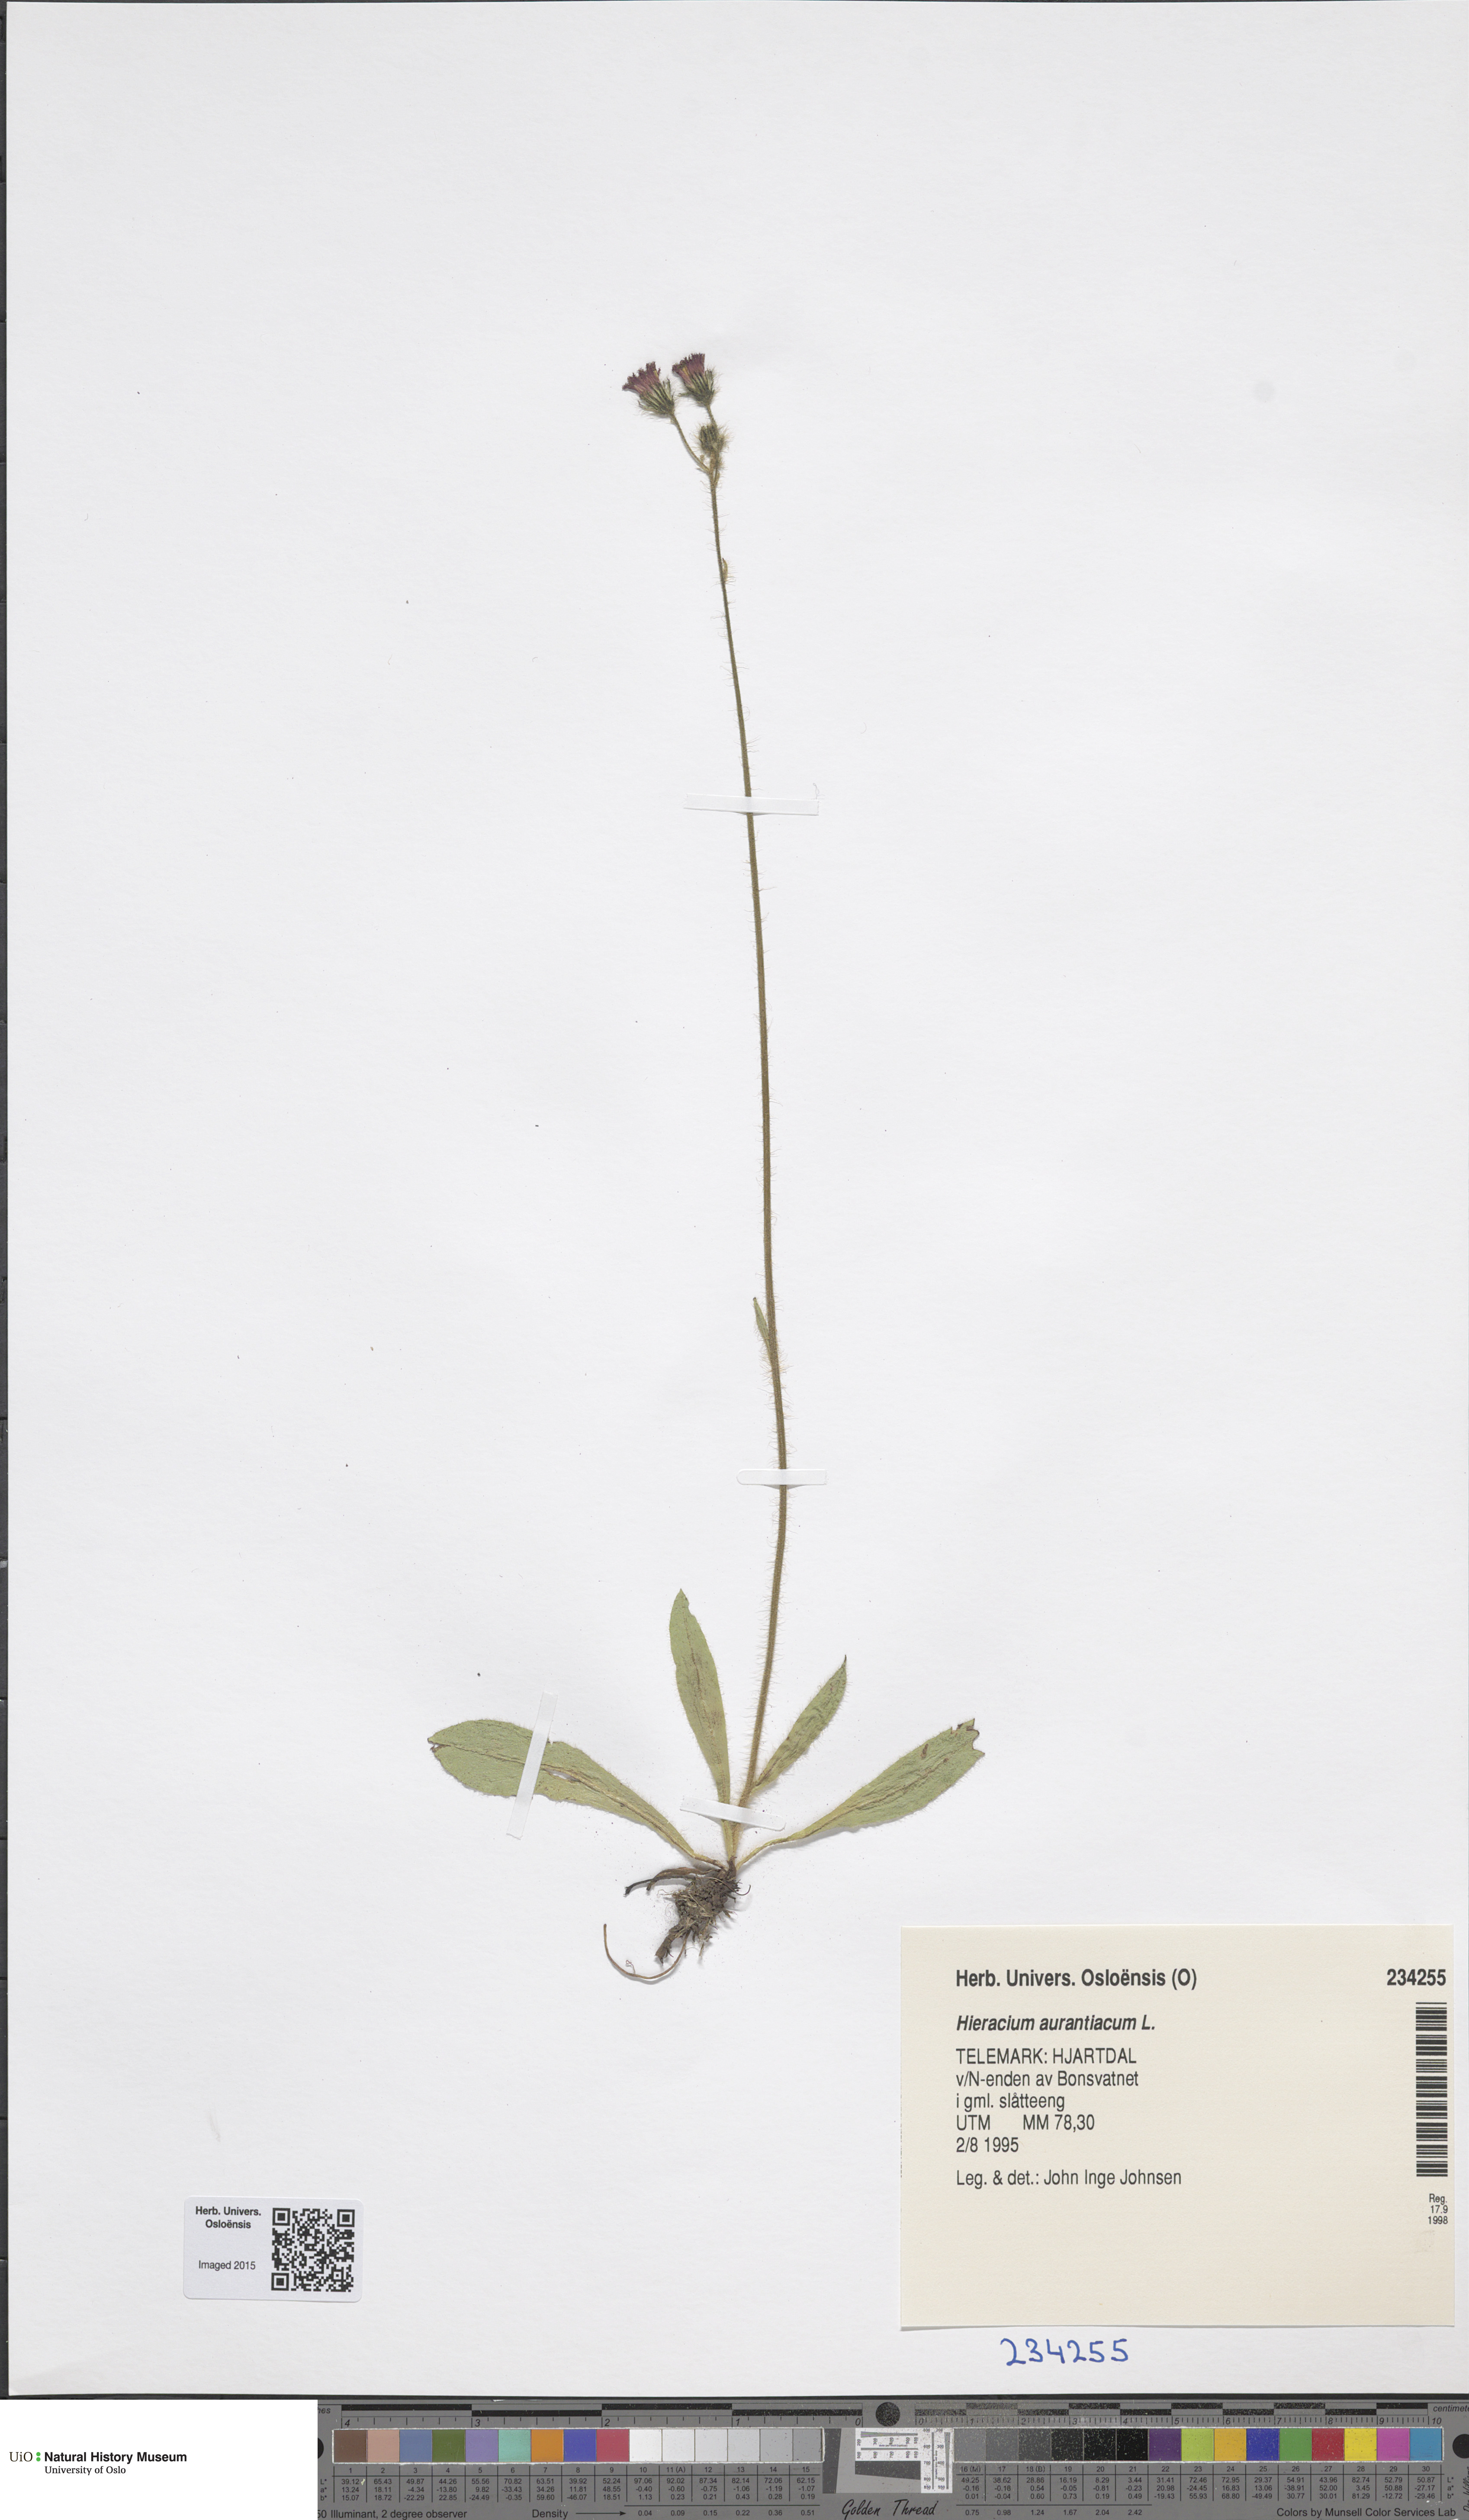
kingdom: Plantae
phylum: Tracheophyta
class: Magnoliopsida
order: Asterales
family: Asteraceae
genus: Pilosella
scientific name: Pilosella aurantiaca
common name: Fox-and-cubs
